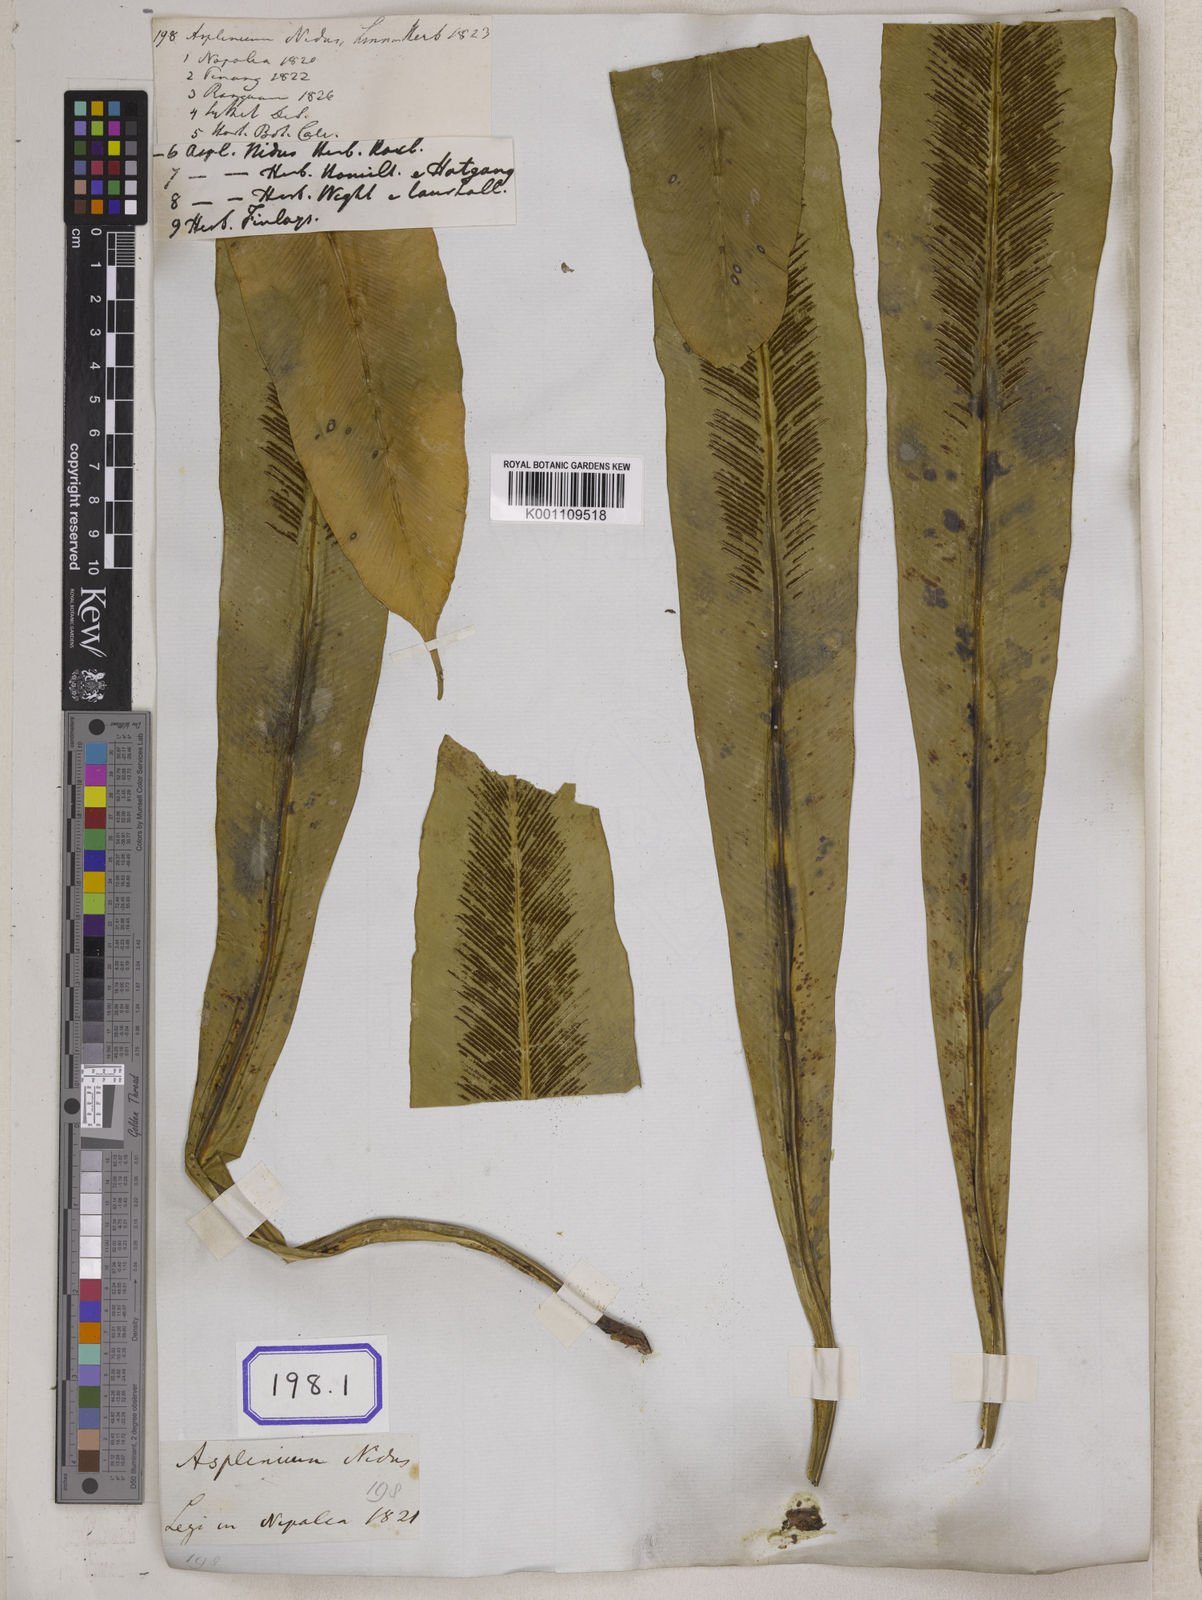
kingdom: Plantae
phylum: Tracheophyta
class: Polypodiopsida
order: Polypodiales
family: Aspleniaceae
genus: Asplenium
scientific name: Asplenium nidus
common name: Bird's-nest fern
